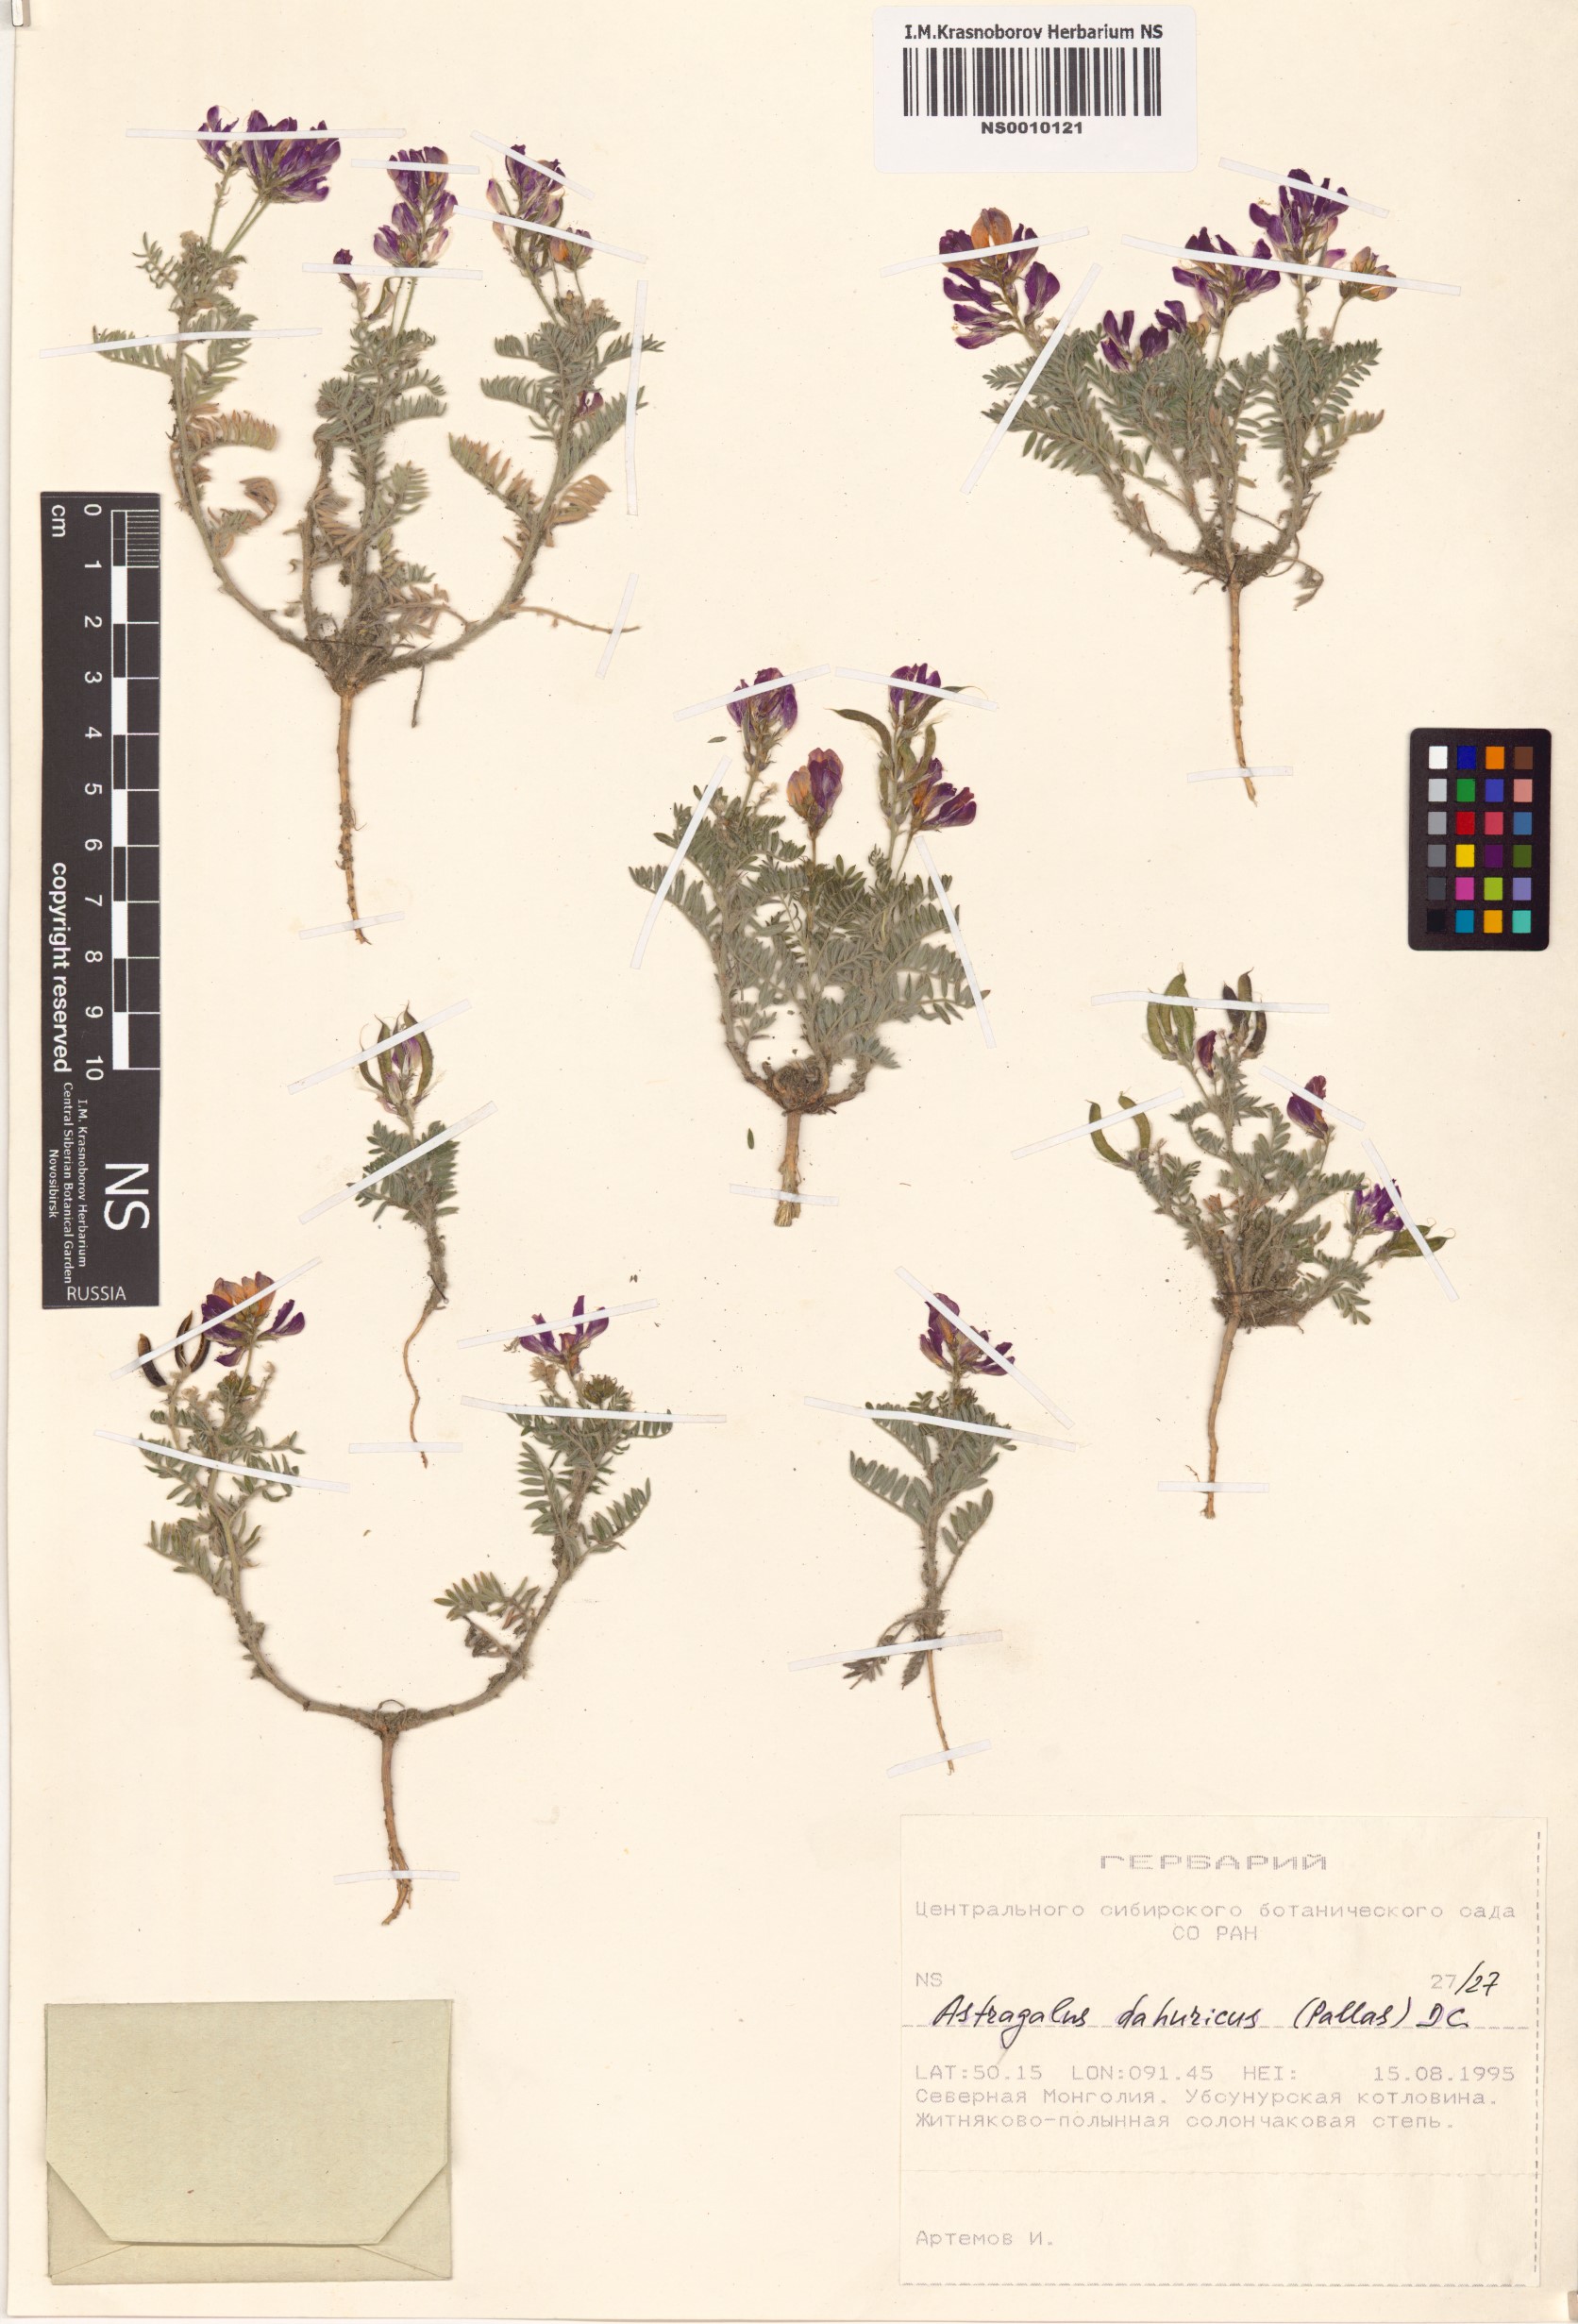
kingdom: Plantae
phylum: Tracheophyta
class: Magnoliopsida
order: Fabales
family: Fabaceae
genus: Oxytropis
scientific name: Oxytropis dissitiflora
